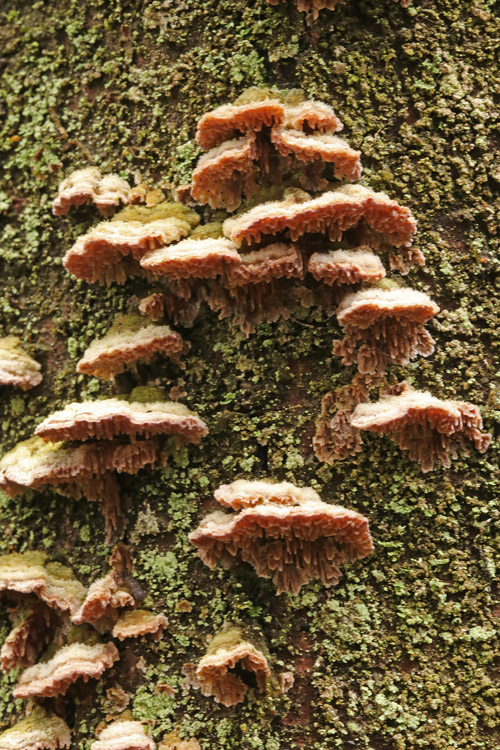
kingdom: Fungi
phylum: Basidiomycota
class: Agaricomycetes
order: Hymenochaetales
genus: Trichaptum
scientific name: Trichaptum fuscoviolaceum
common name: tandet violporesvamp
